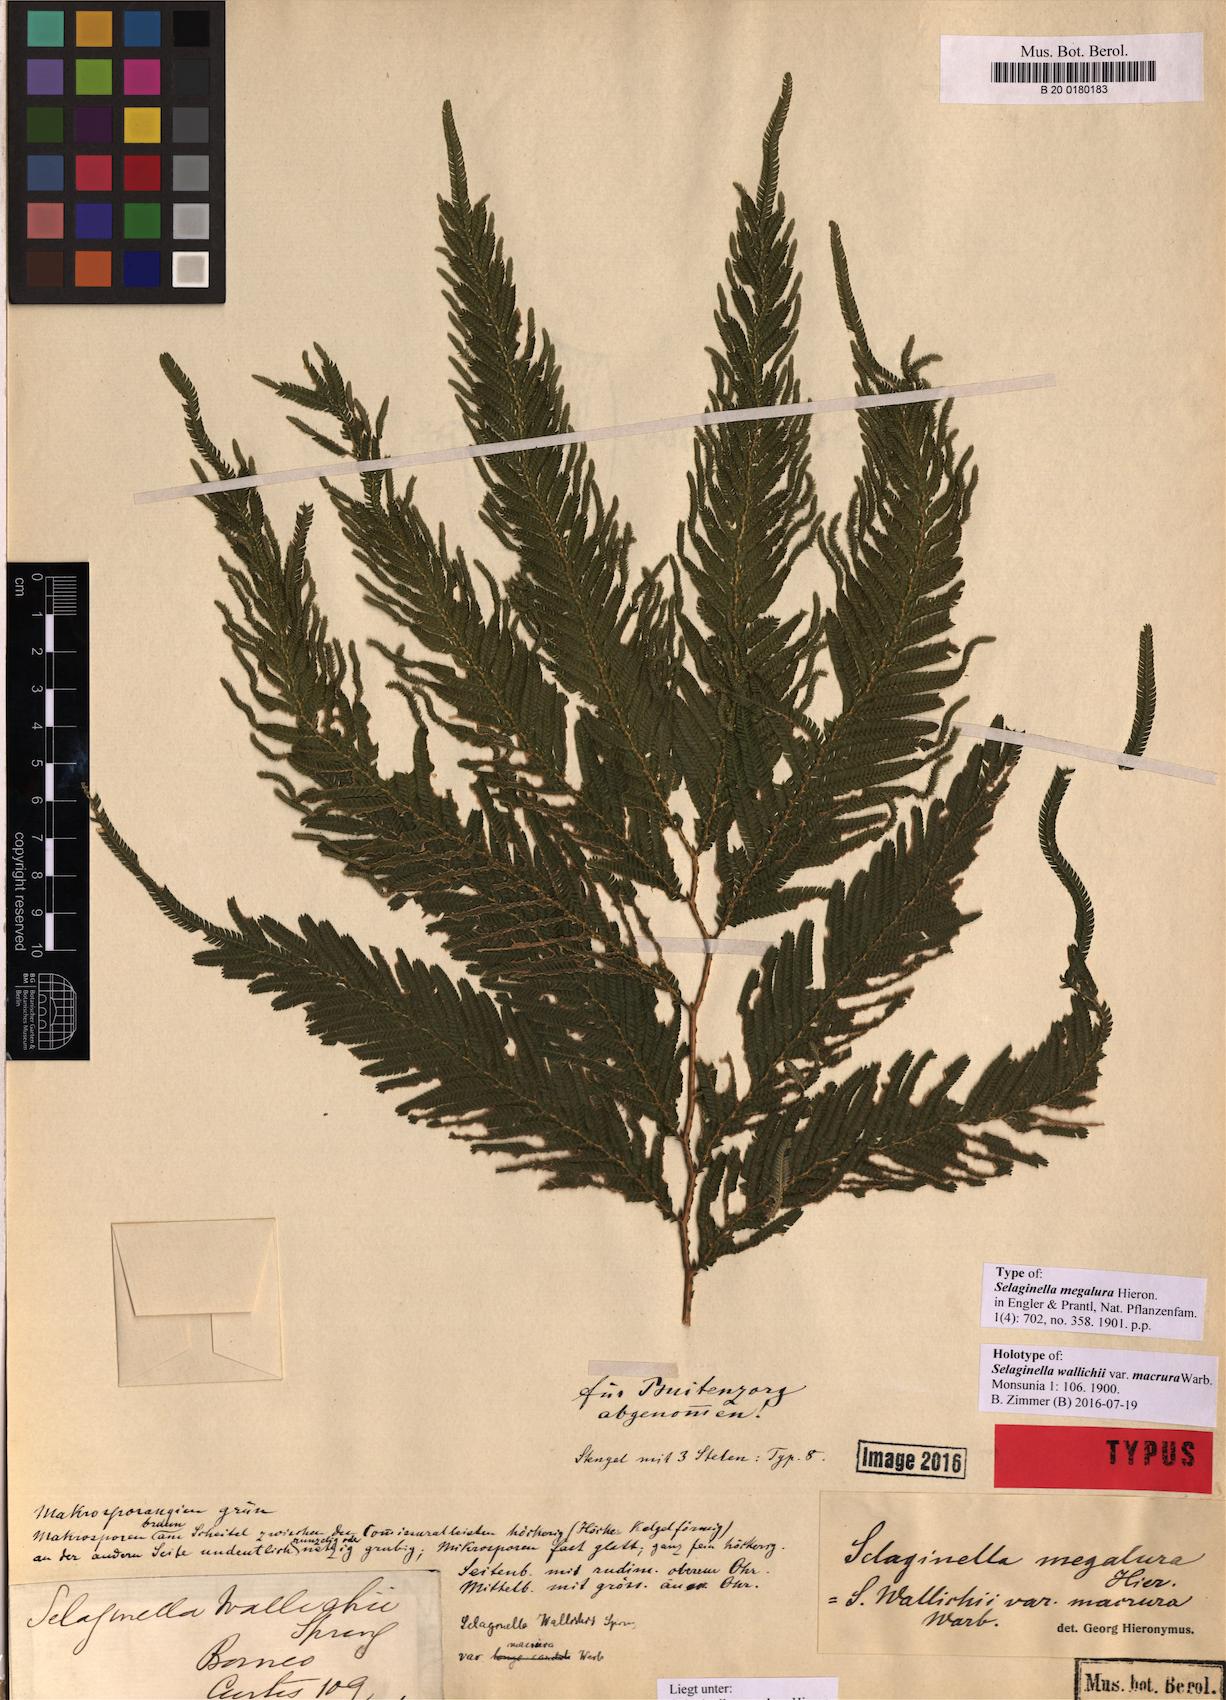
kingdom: Plantae
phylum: Tracheophyta
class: Lycopodiopsida
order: Selaginellales
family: Selaginellaceae
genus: Selaginella
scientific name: Selaginella megalura
